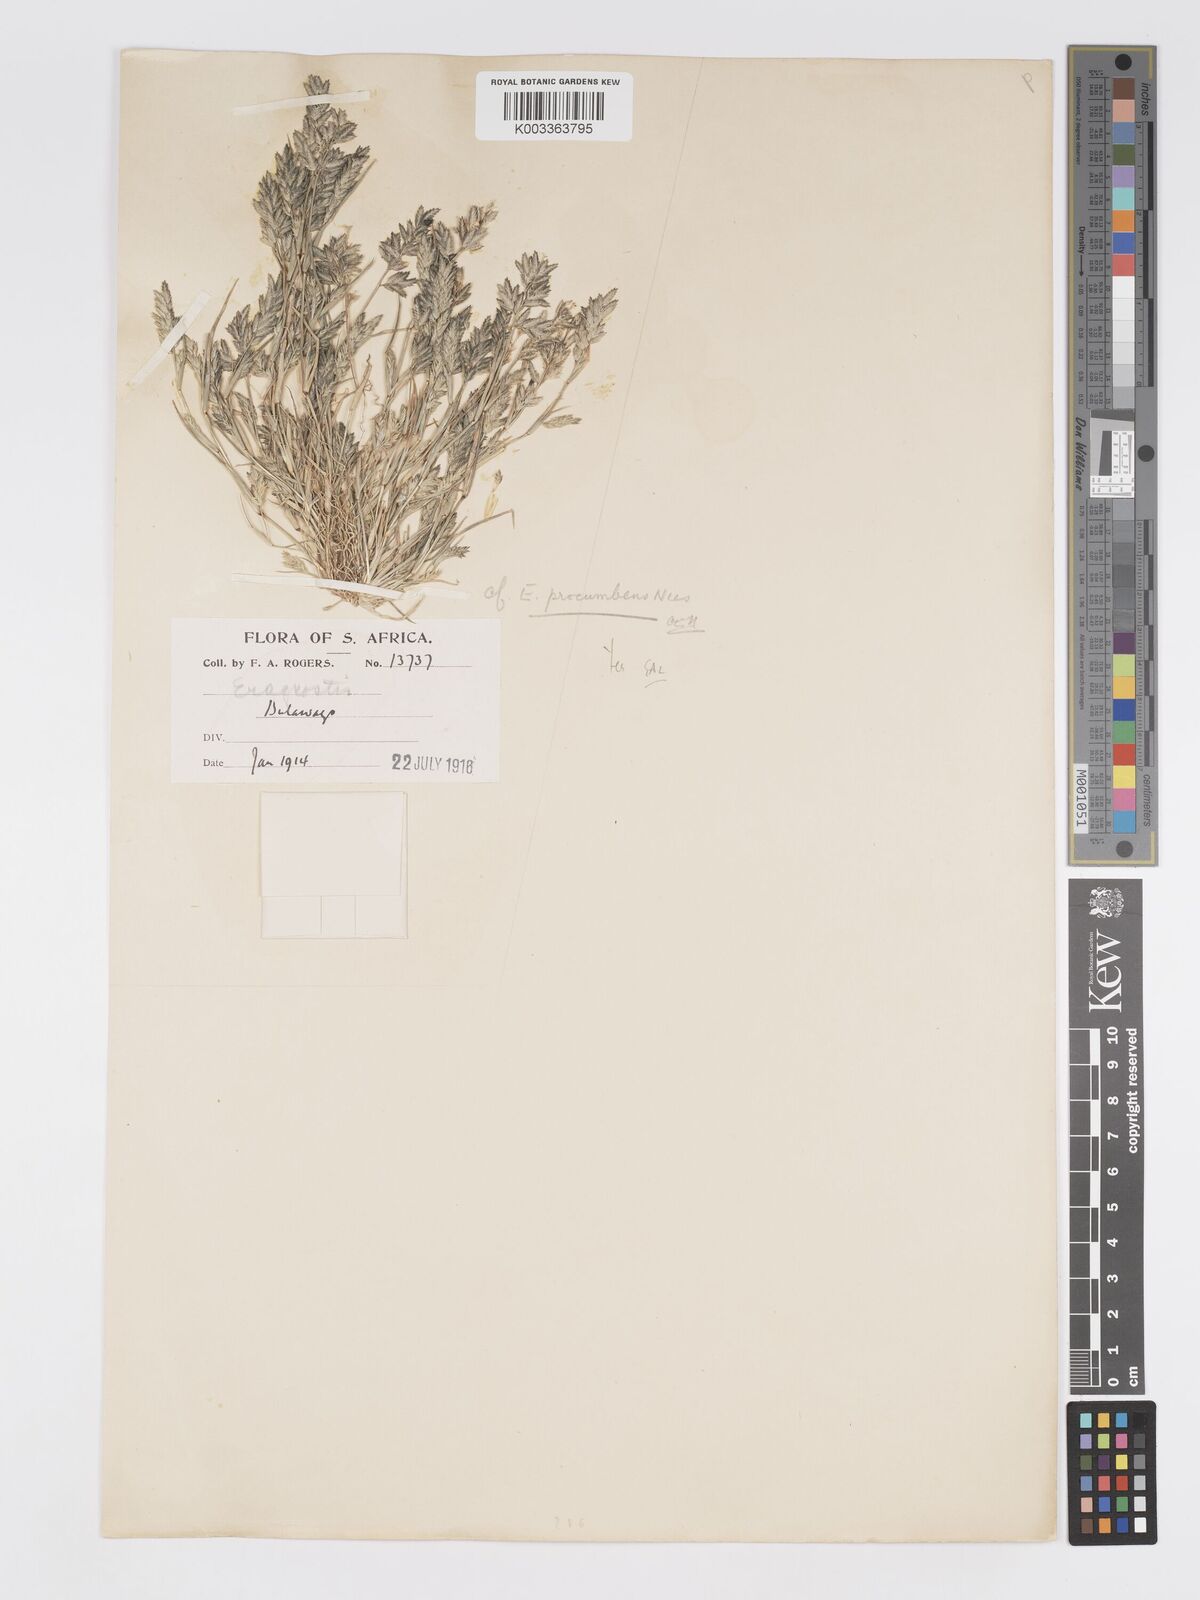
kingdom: Plantae
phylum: Tracheophyta
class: Liliopsida
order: Poales
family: Poaceae
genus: Eragrostis
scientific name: Eragrostis procumbens
